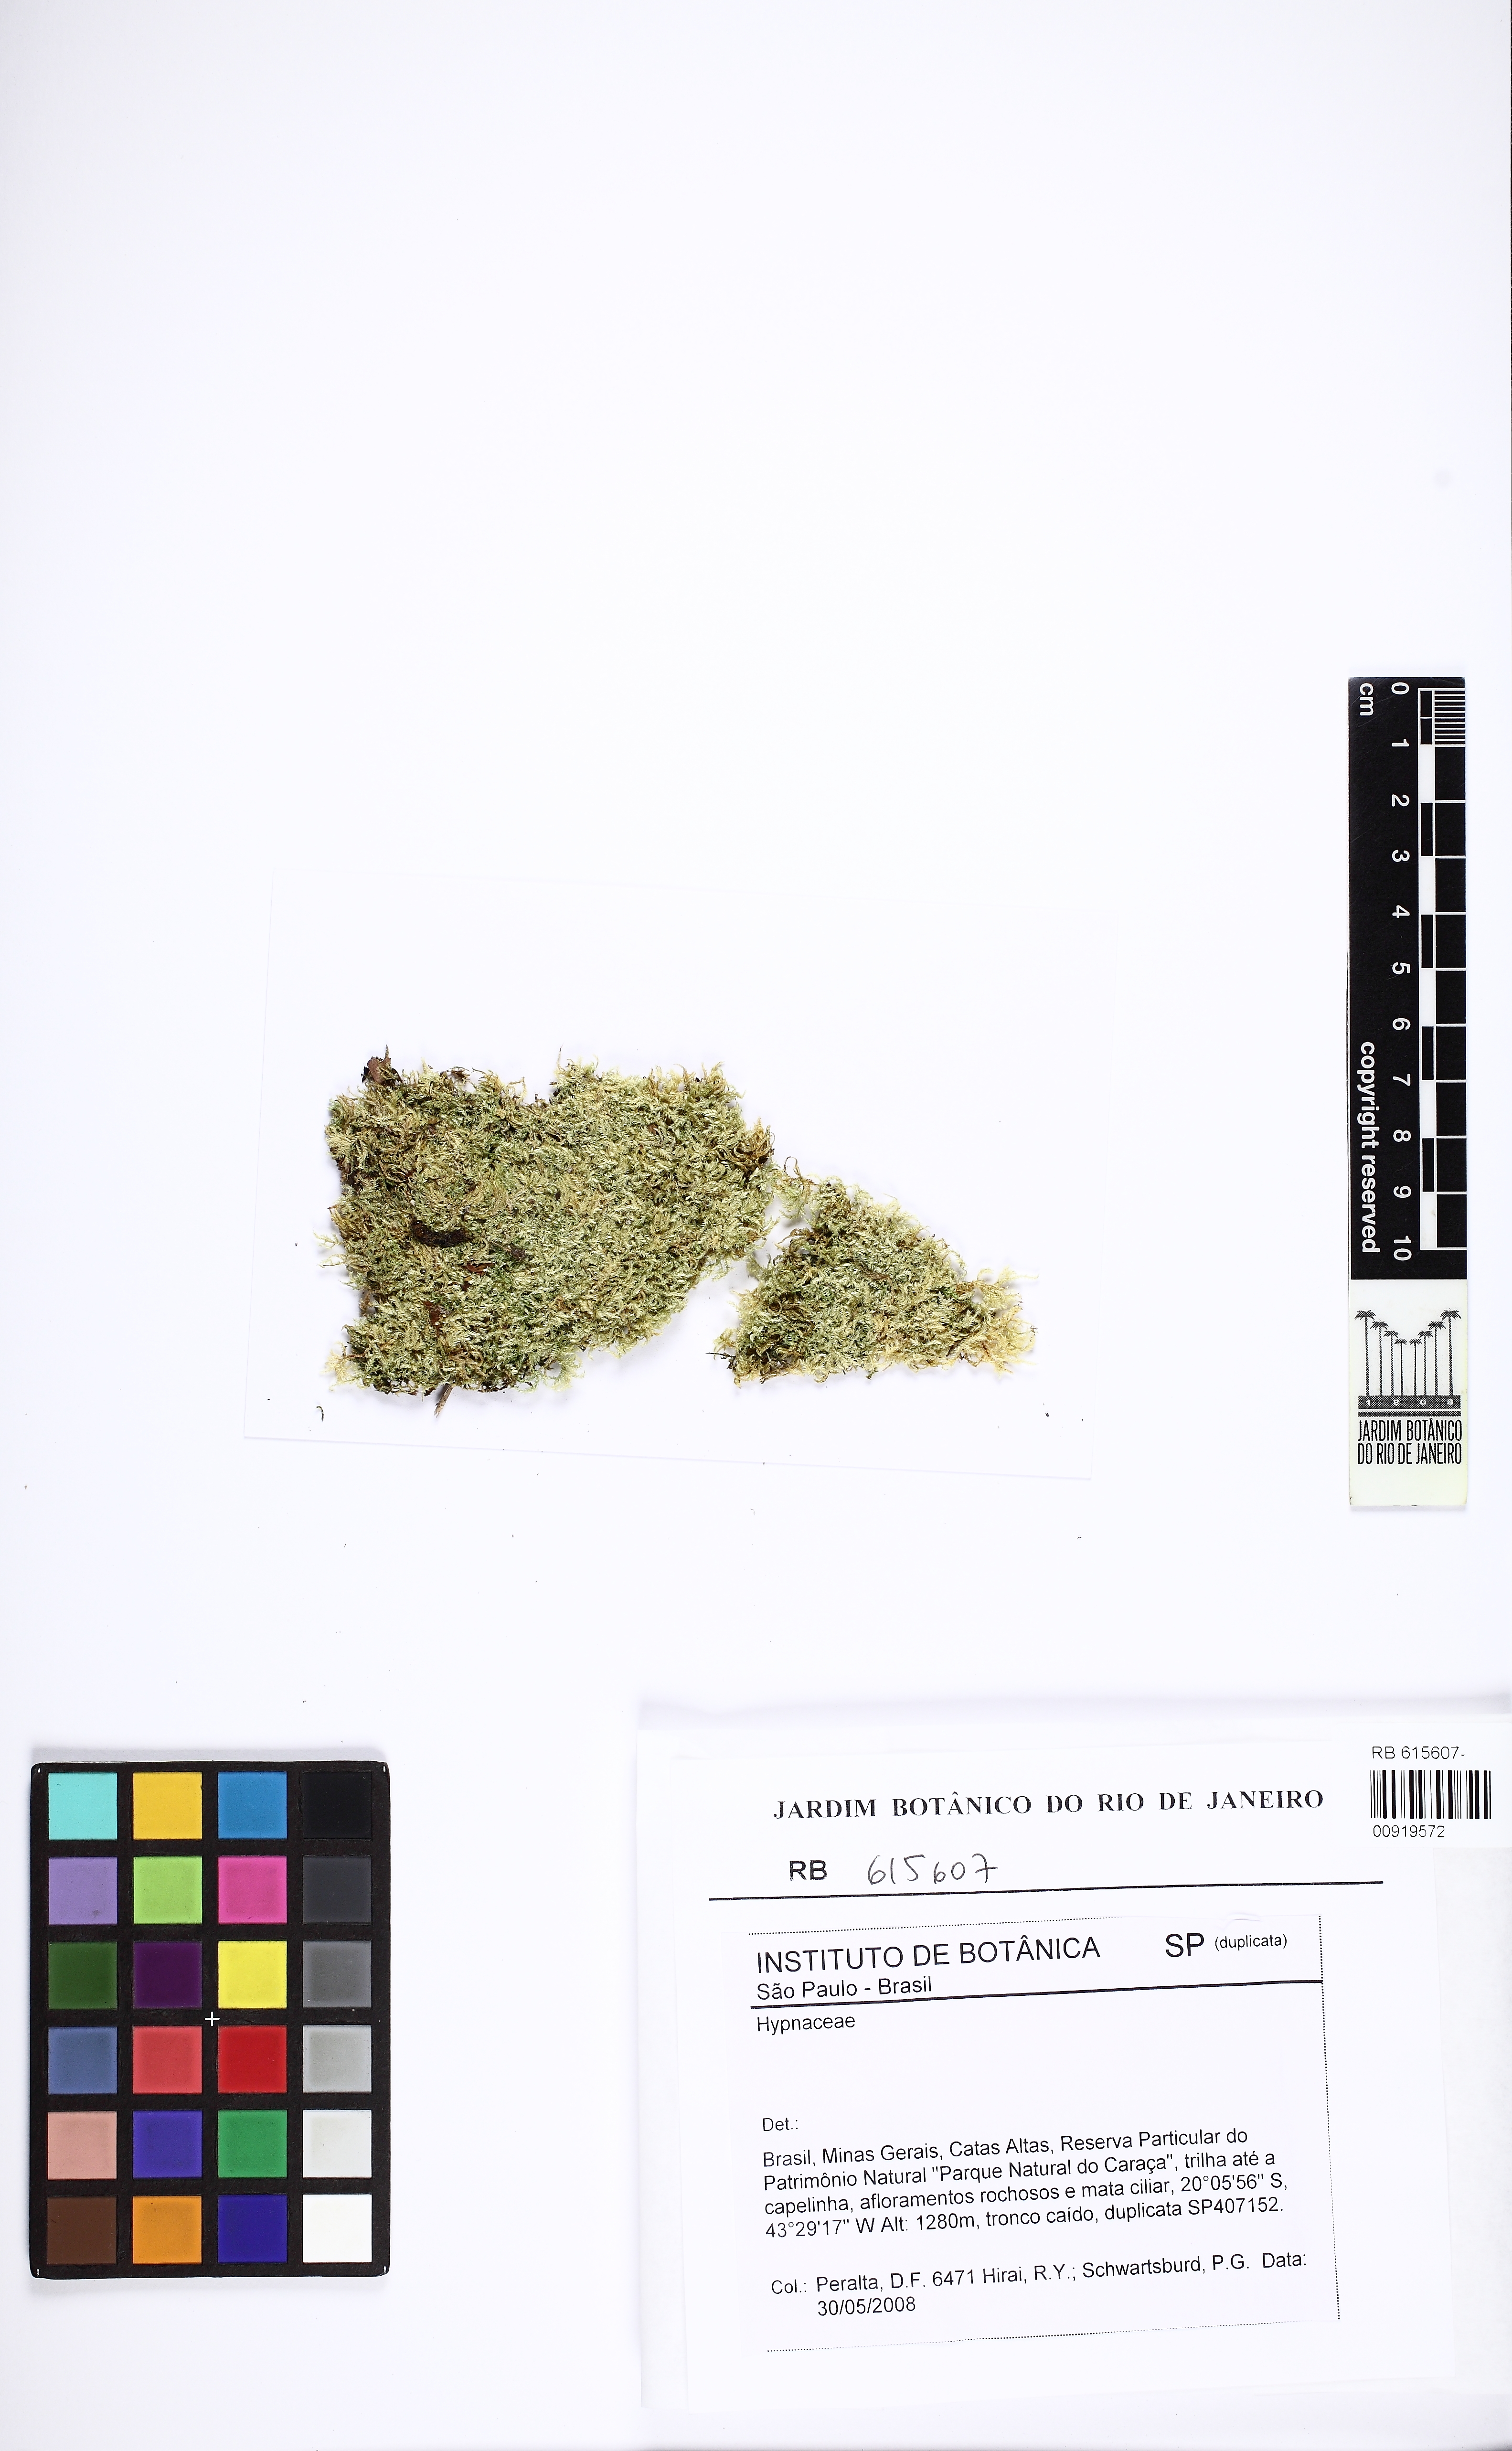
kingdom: Plantae
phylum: Bryophyta
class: Bryopsida
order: Hypnales
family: Hypnaceae
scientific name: Hypnaceae
